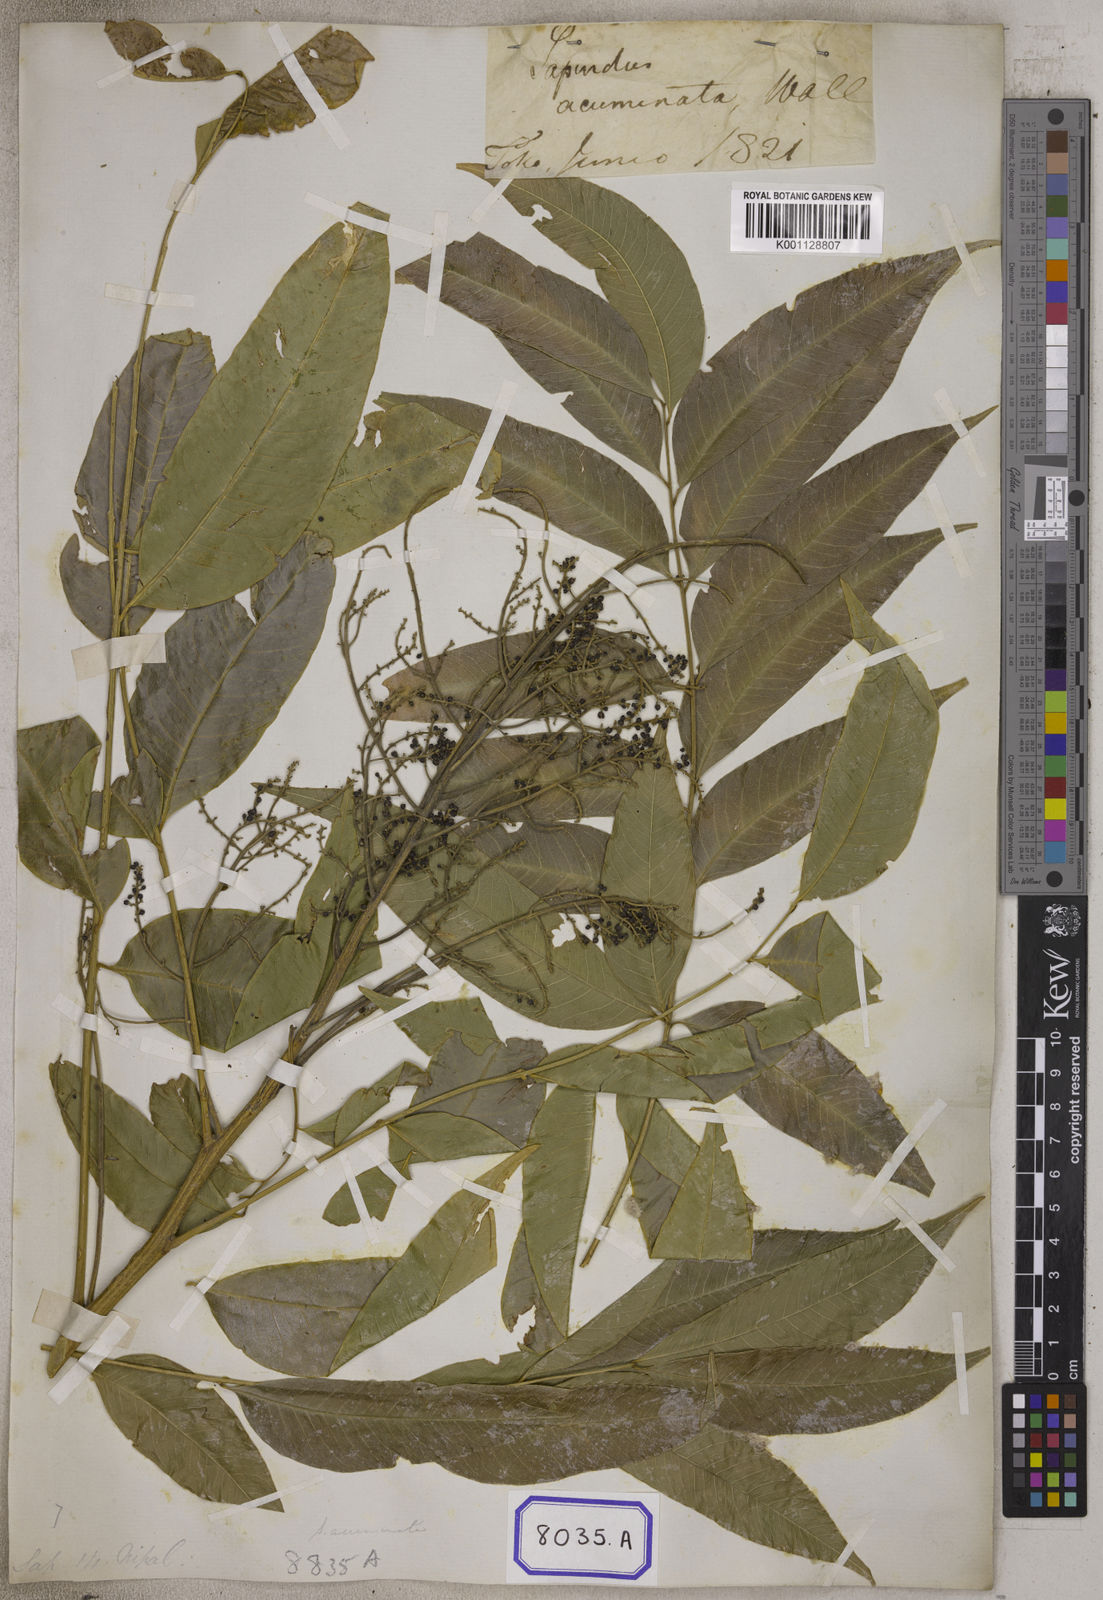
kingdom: Plantae
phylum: Tracheophyta
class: Magnoliopsida
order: Sapindales
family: Sapindaceae
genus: Sapindus
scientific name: Sapindus
